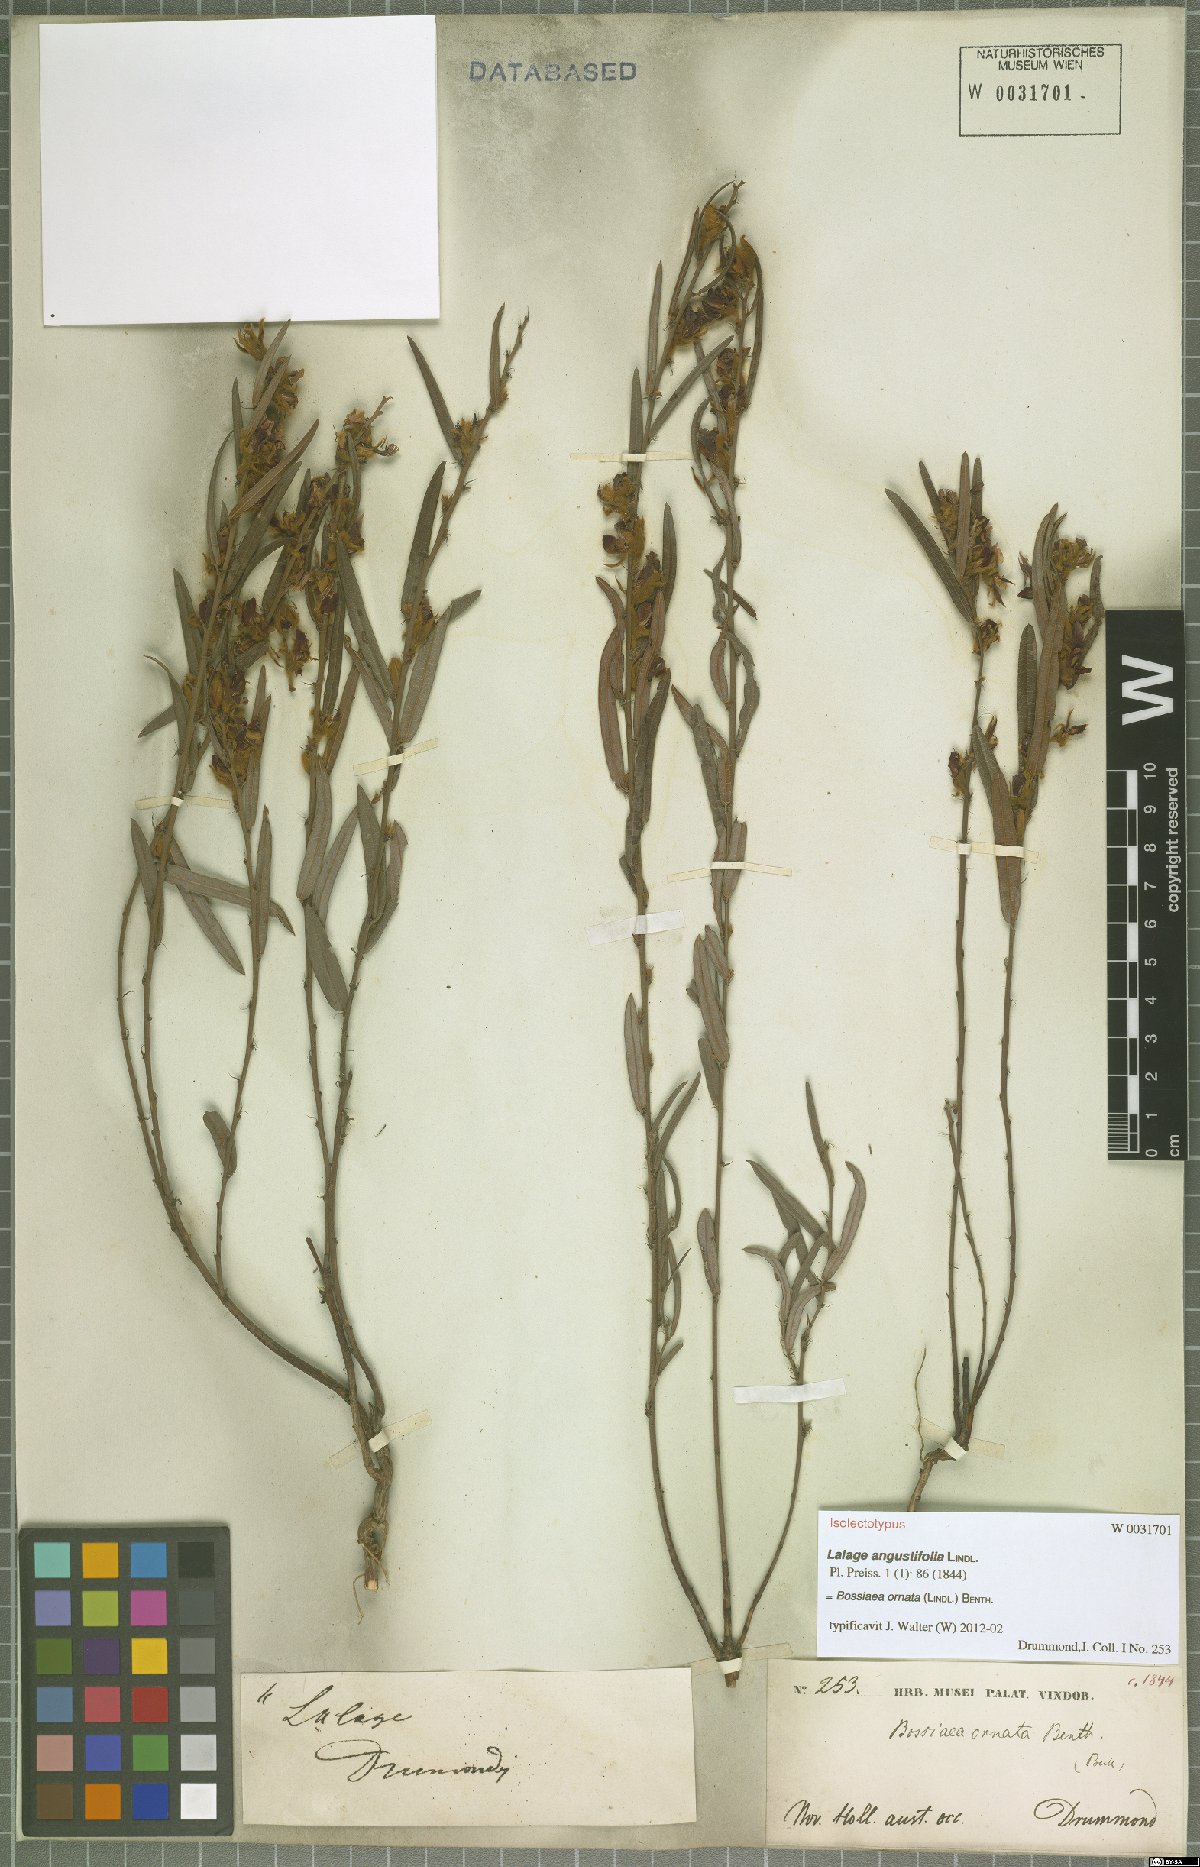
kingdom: Plantae
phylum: Tracheophyta
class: Magnoliopsida
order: Fabales
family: Fabaceae
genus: Bossiaea
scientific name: Bossiaea ornata
